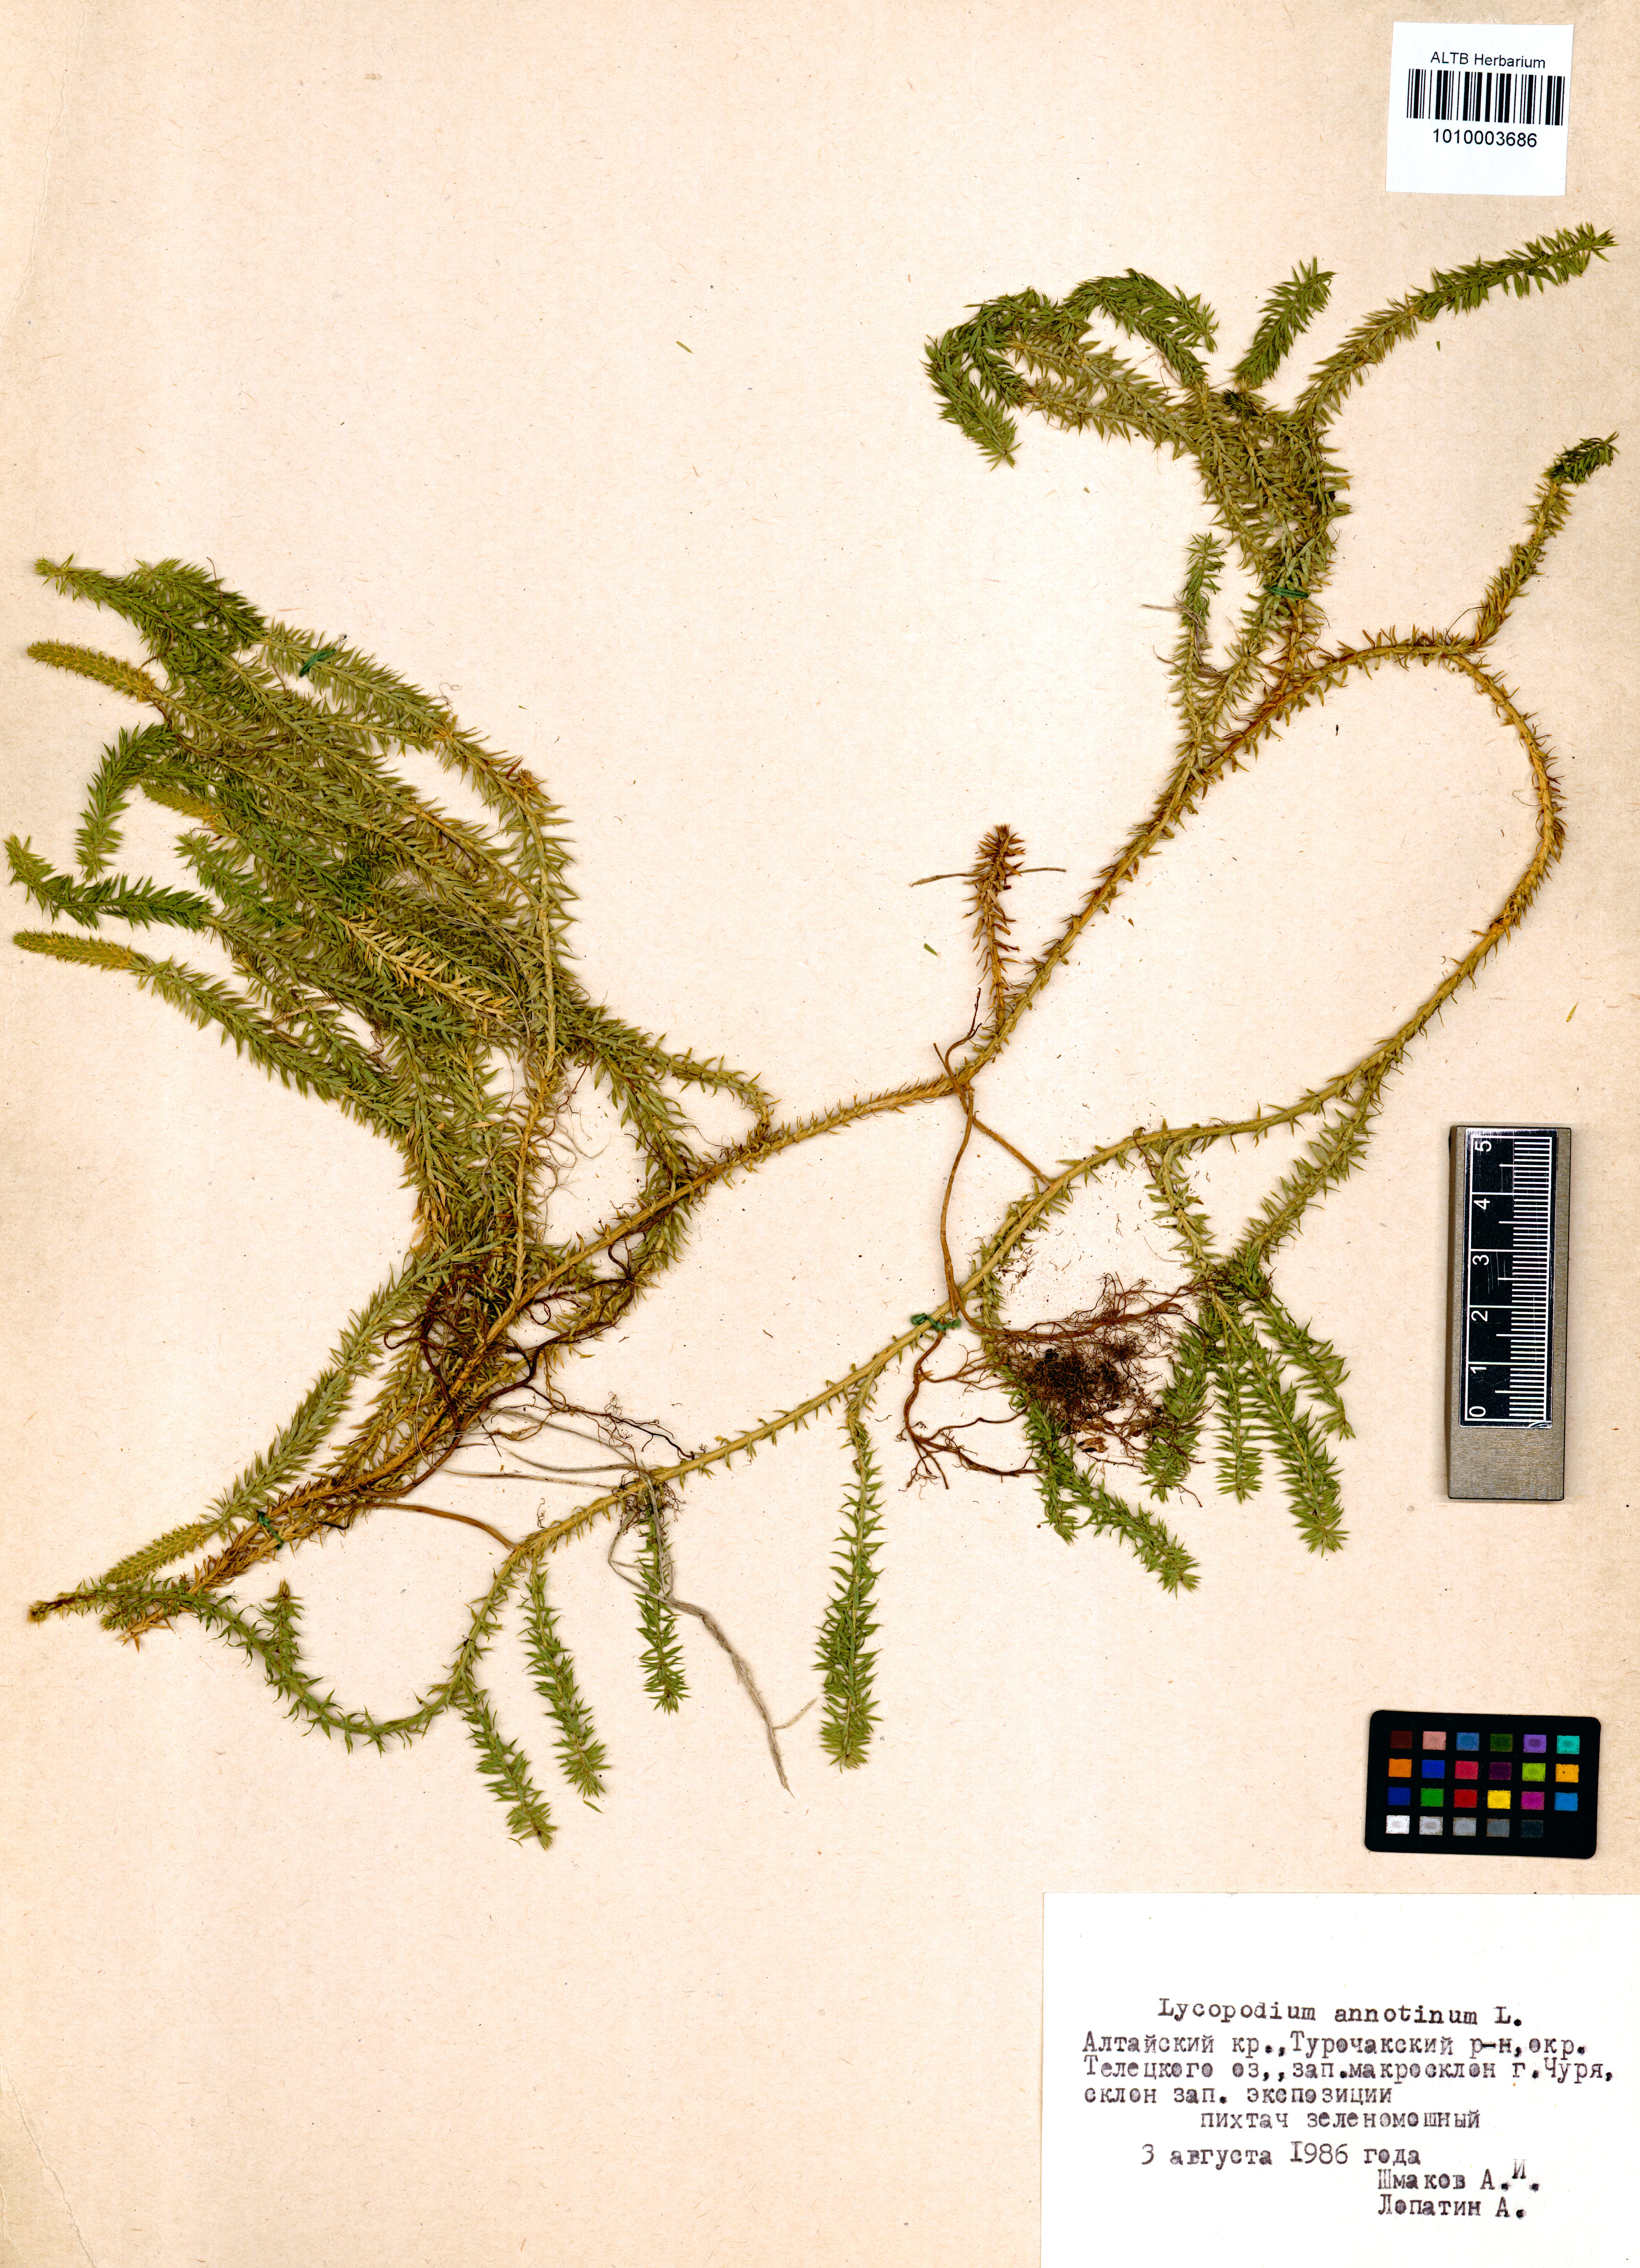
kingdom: Plantae
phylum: Tracheophyta
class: Lycopodiopsida
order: Lycopodiales
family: Lycopodiaceae
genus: Spinulum
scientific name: Spinulum annotinum
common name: Interrupted club-moss
